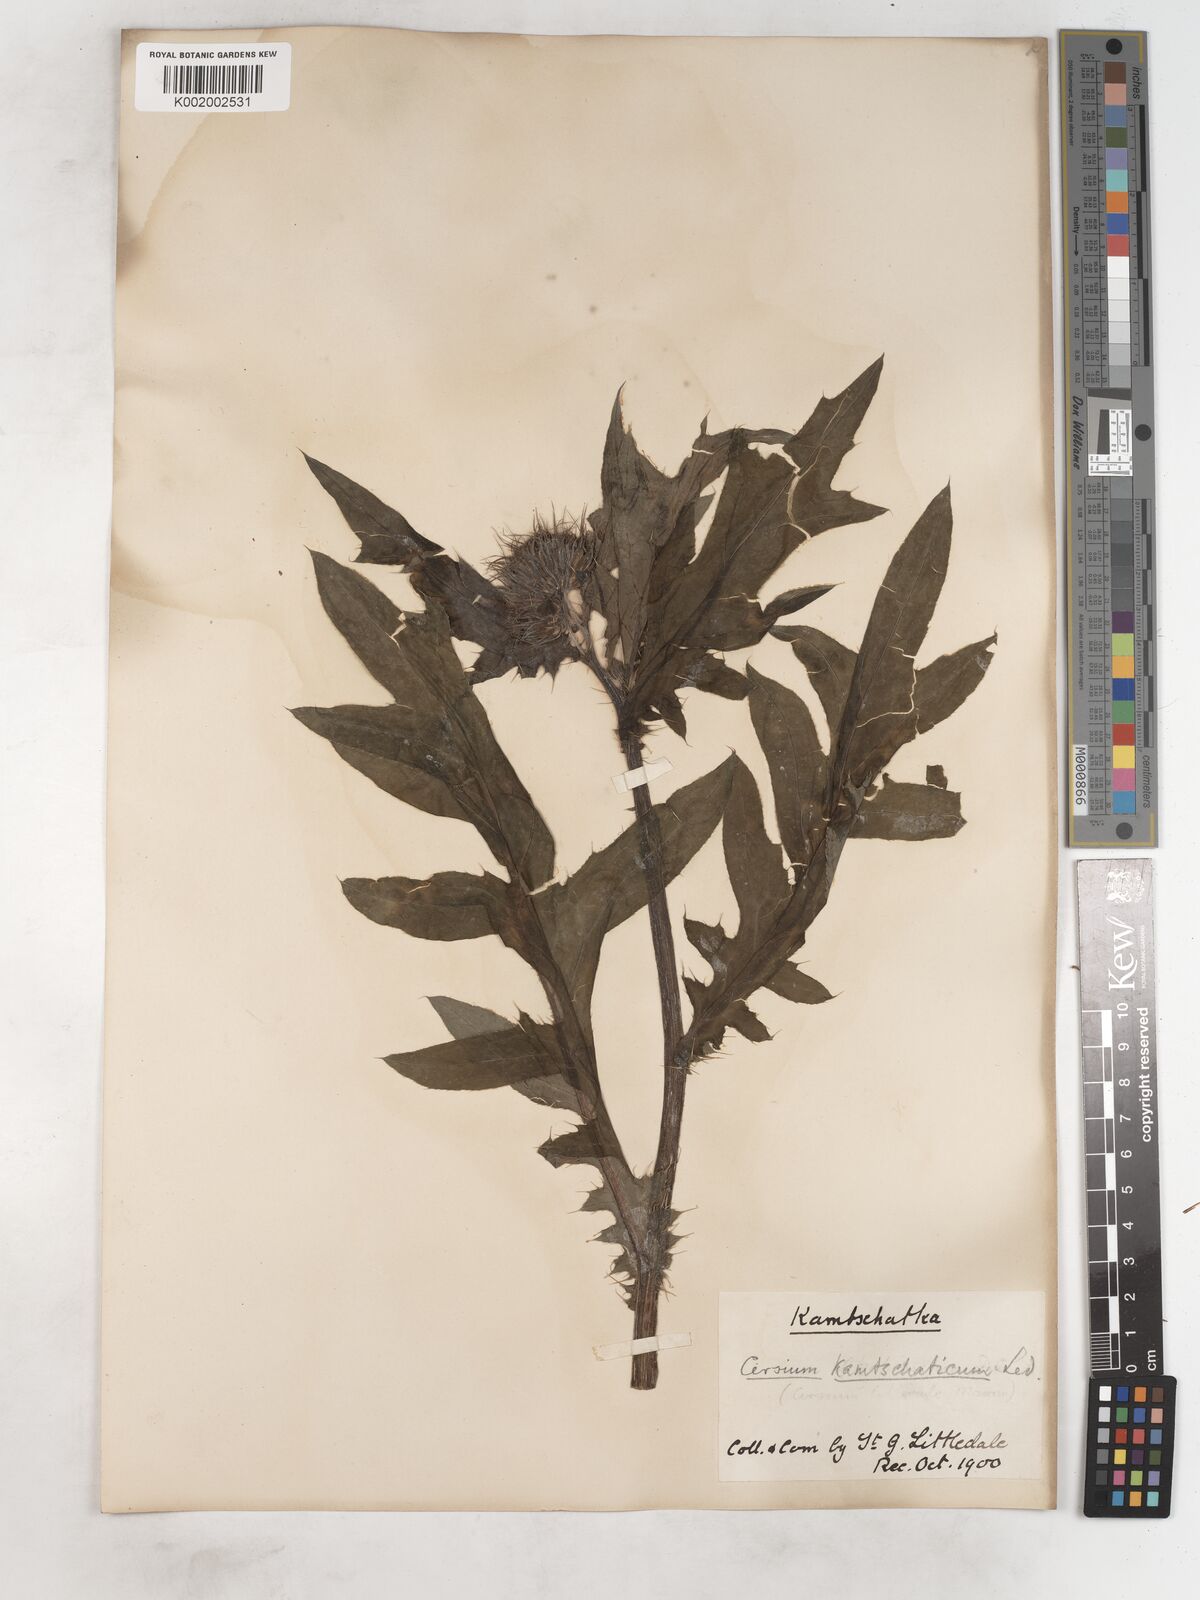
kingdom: Plantae
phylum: Tracheophyta
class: Magnoliopsida
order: Asterales
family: Asteraceae
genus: Cirsium
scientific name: Cirsium kamtschaticum
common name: Kamchatka thistle
